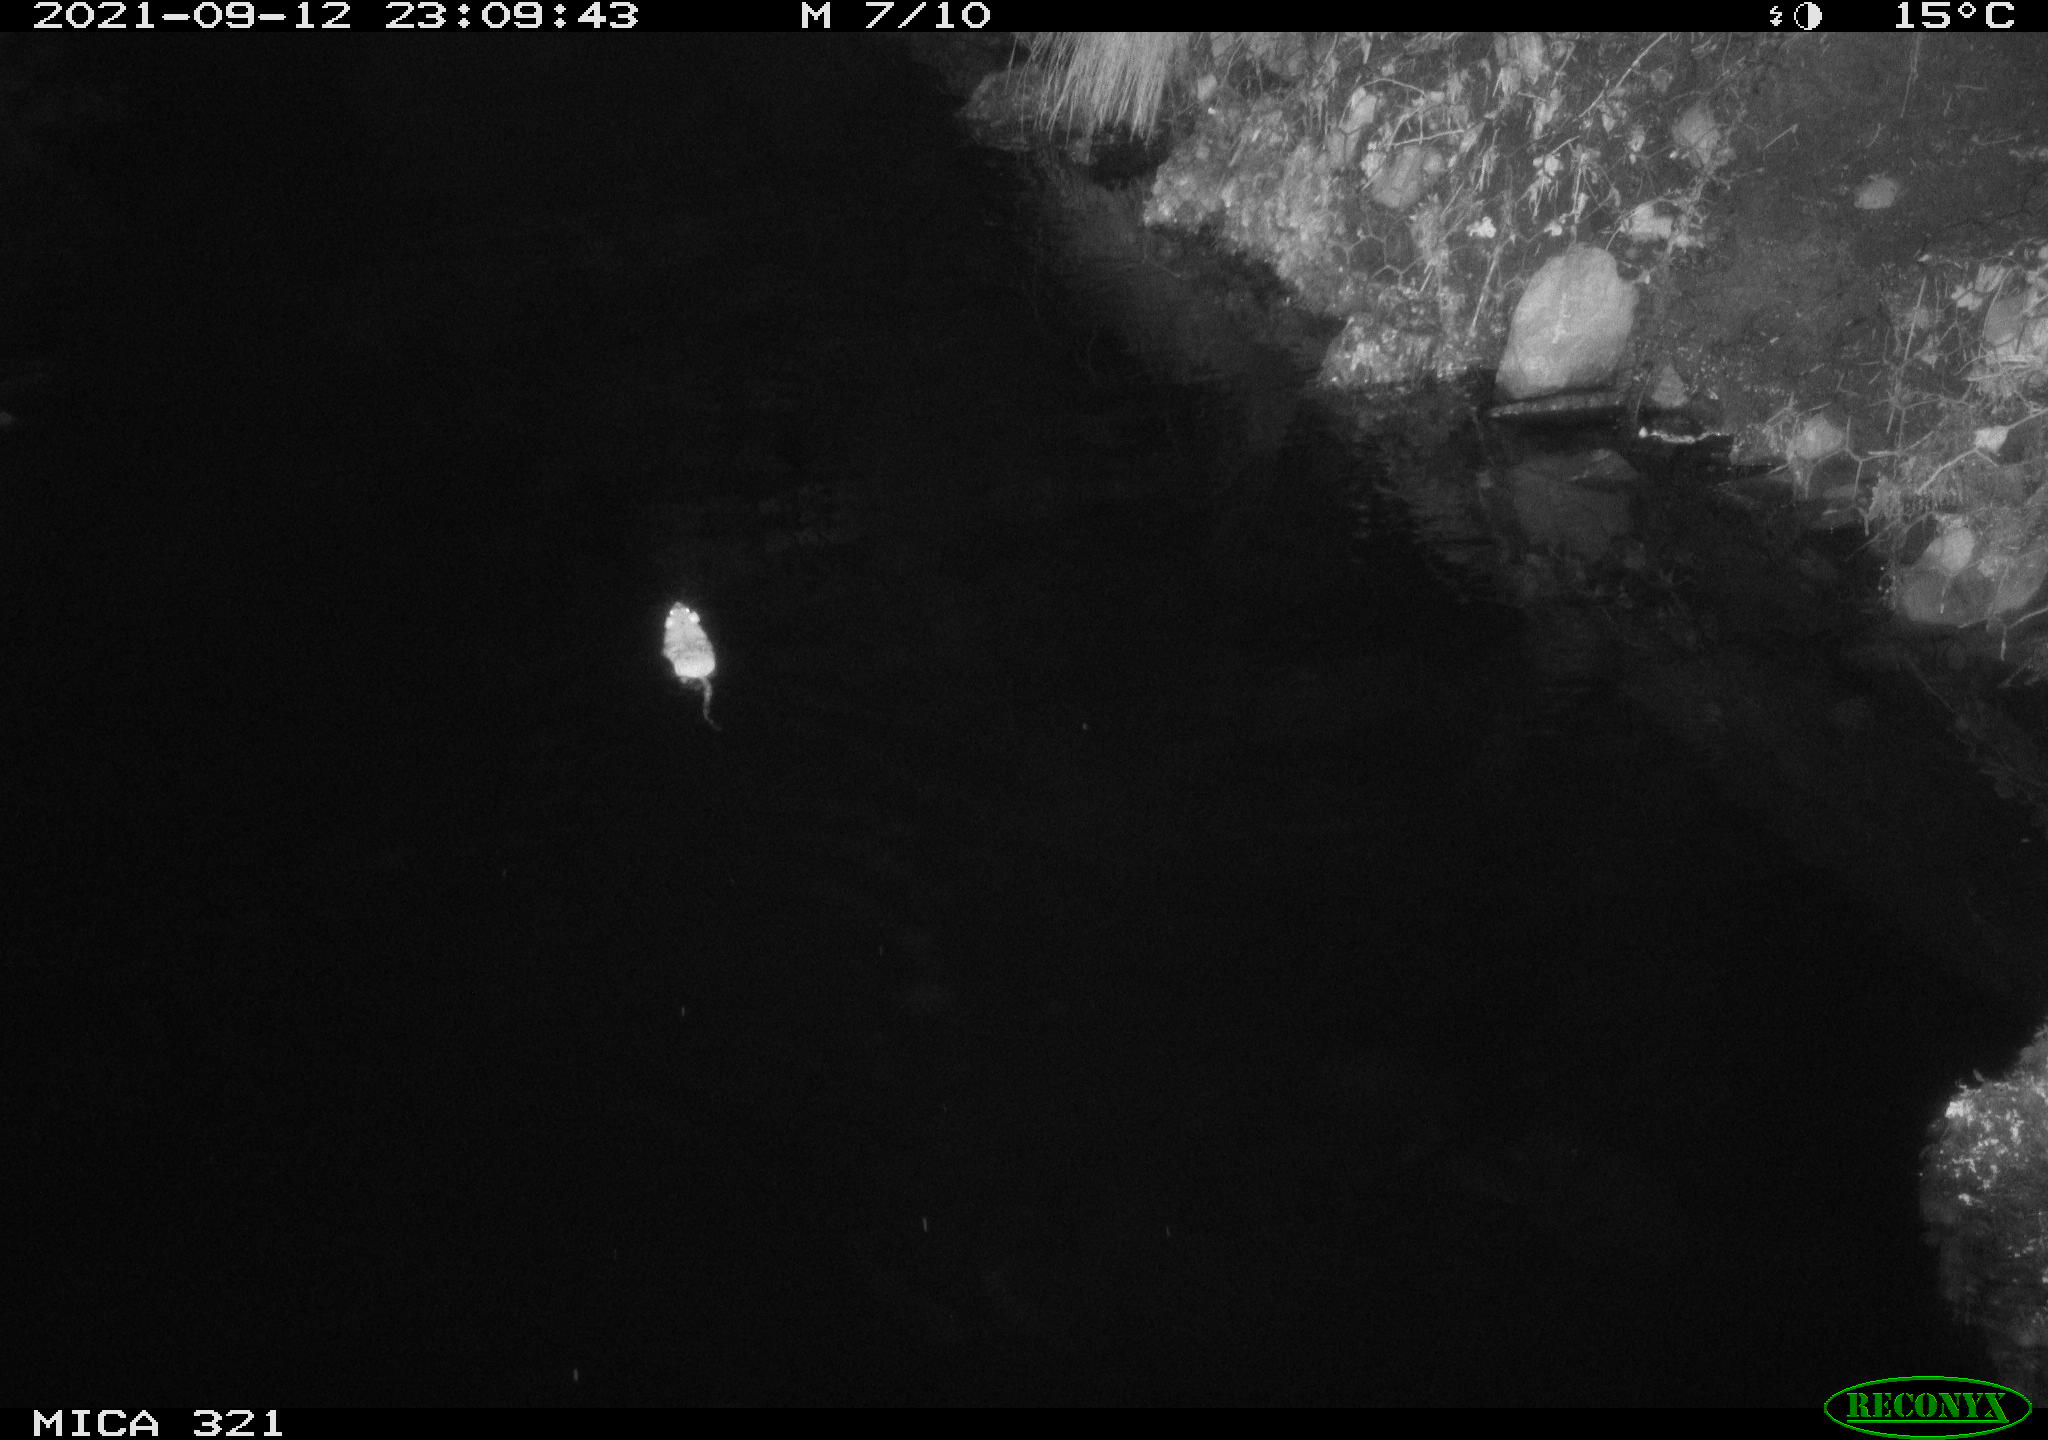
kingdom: Animalia
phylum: Chordata
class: Mammalia
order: Rodentia
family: Muridae
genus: Rattus
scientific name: Rattus norvegicus
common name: Brown rat
